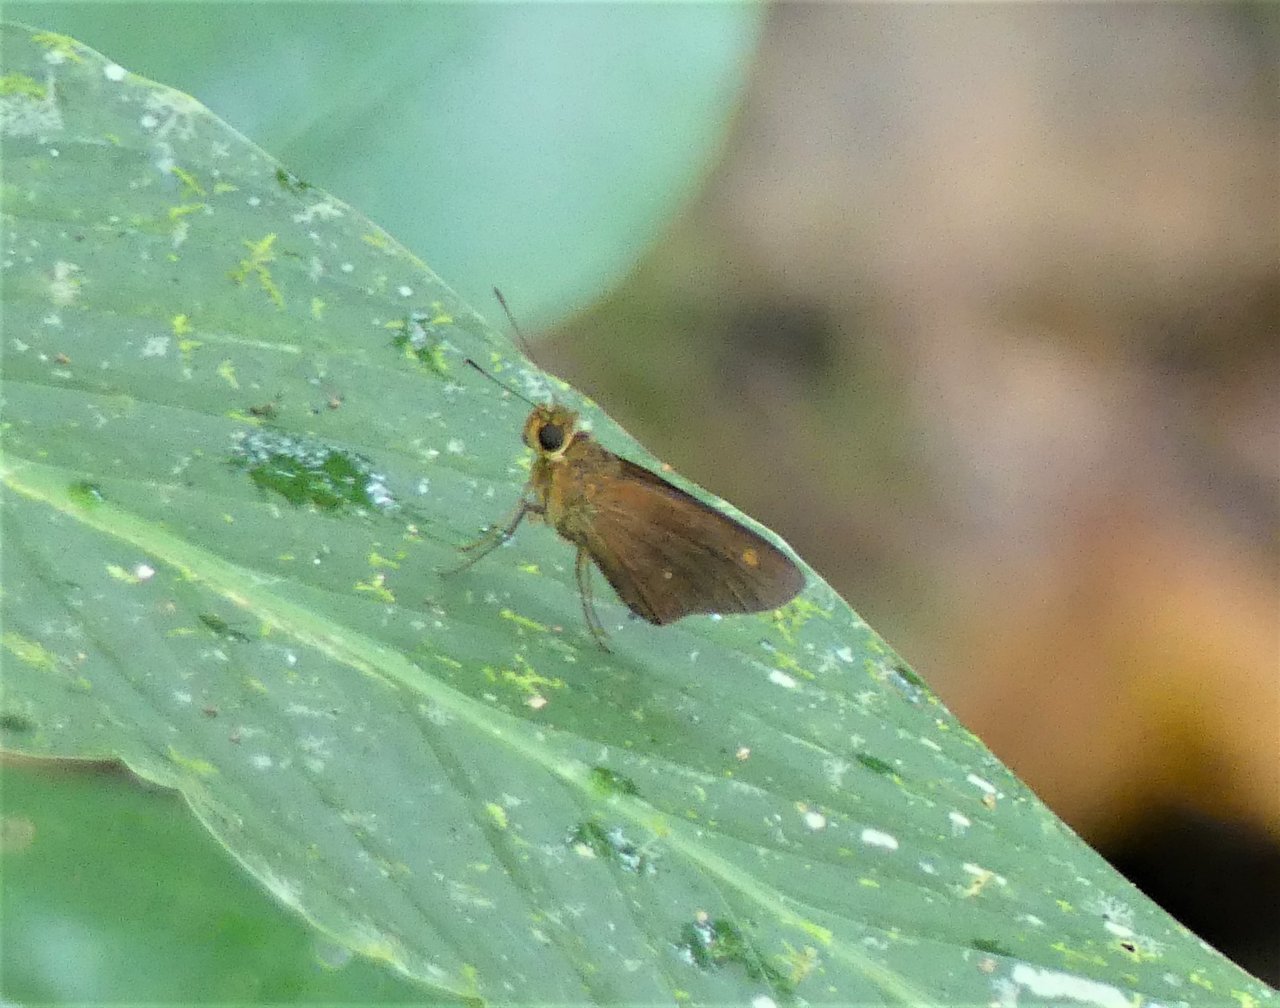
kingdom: Animalia
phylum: Arthropoda
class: Insecta
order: Lepidoptera
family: Hesperiidae
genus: Turesis
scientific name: Turesis lucas
